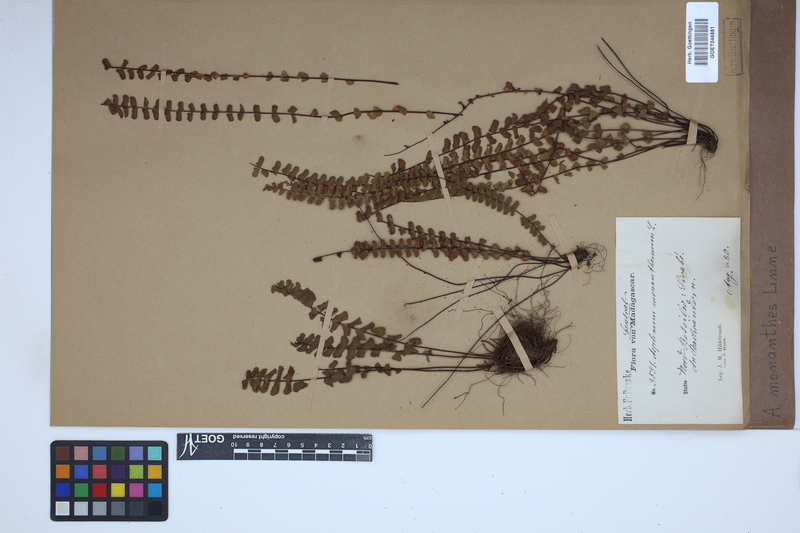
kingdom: Plantae
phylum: Tracheophyta
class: Polypodiopsida
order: Polypodiales
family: Aspleniaceae
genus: Asplenium
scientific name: Asplenium monanthes
